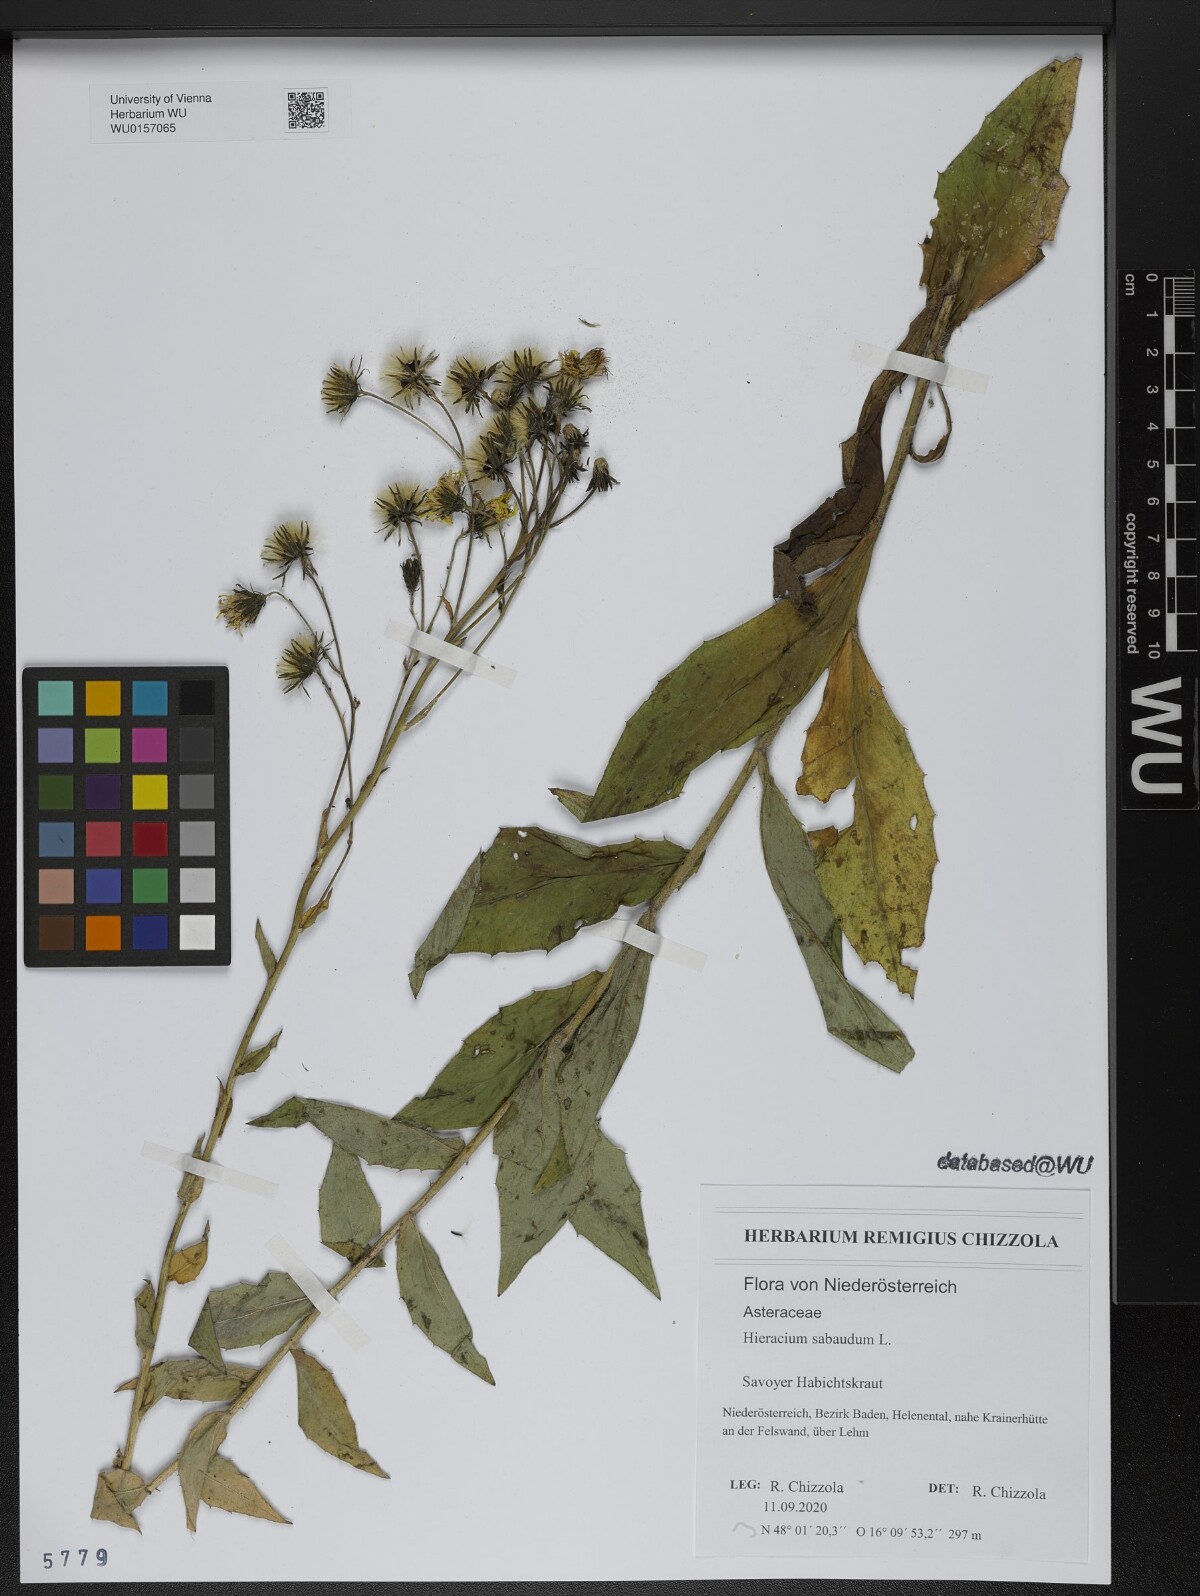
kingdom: Plantae
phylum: Tracheophyta
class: Magnoliopsida
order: Asterales
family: Asteraceae
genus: Hieracium
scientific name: Hieracium sabaudum
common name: New england hawkweed
